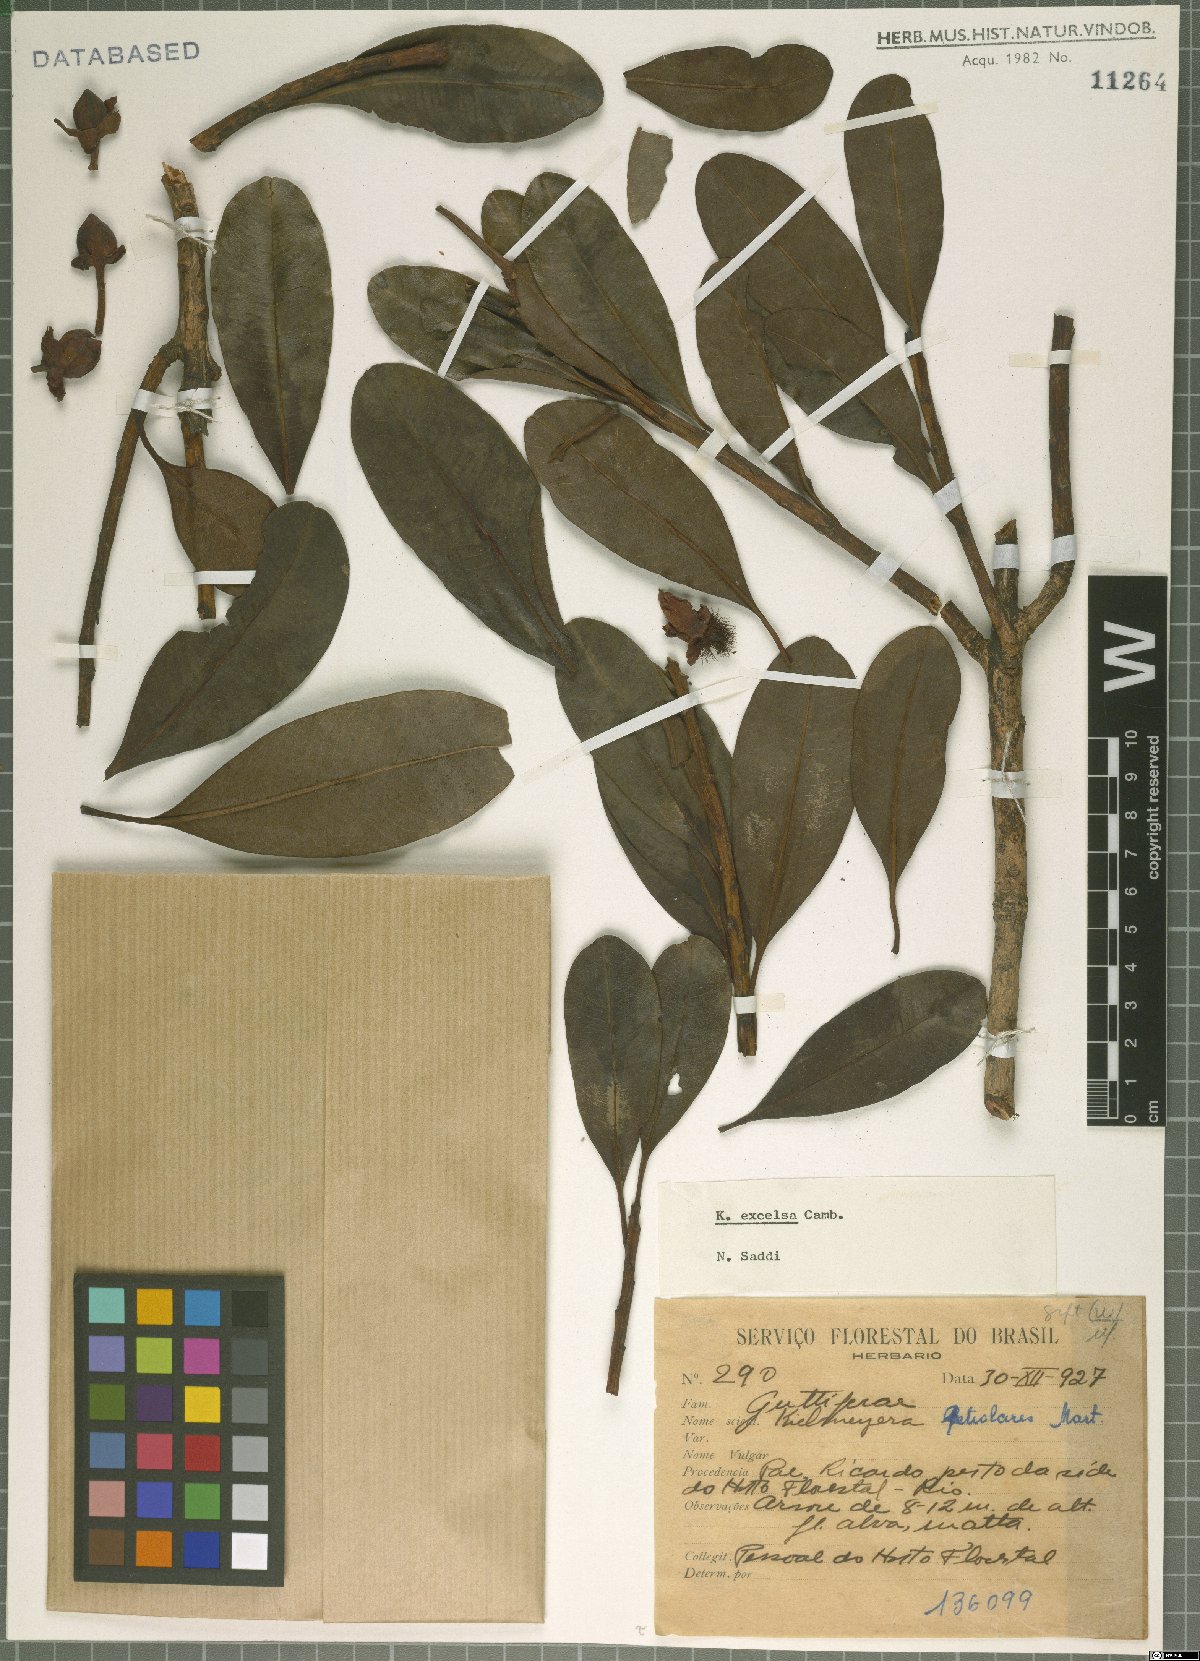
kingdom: Plantae
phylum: Tracheophyta
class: Magnoliopsida
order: Malpighiales
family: Calophyllaceae
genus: Kielmeyera
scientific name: Kielmeyera excelsa
